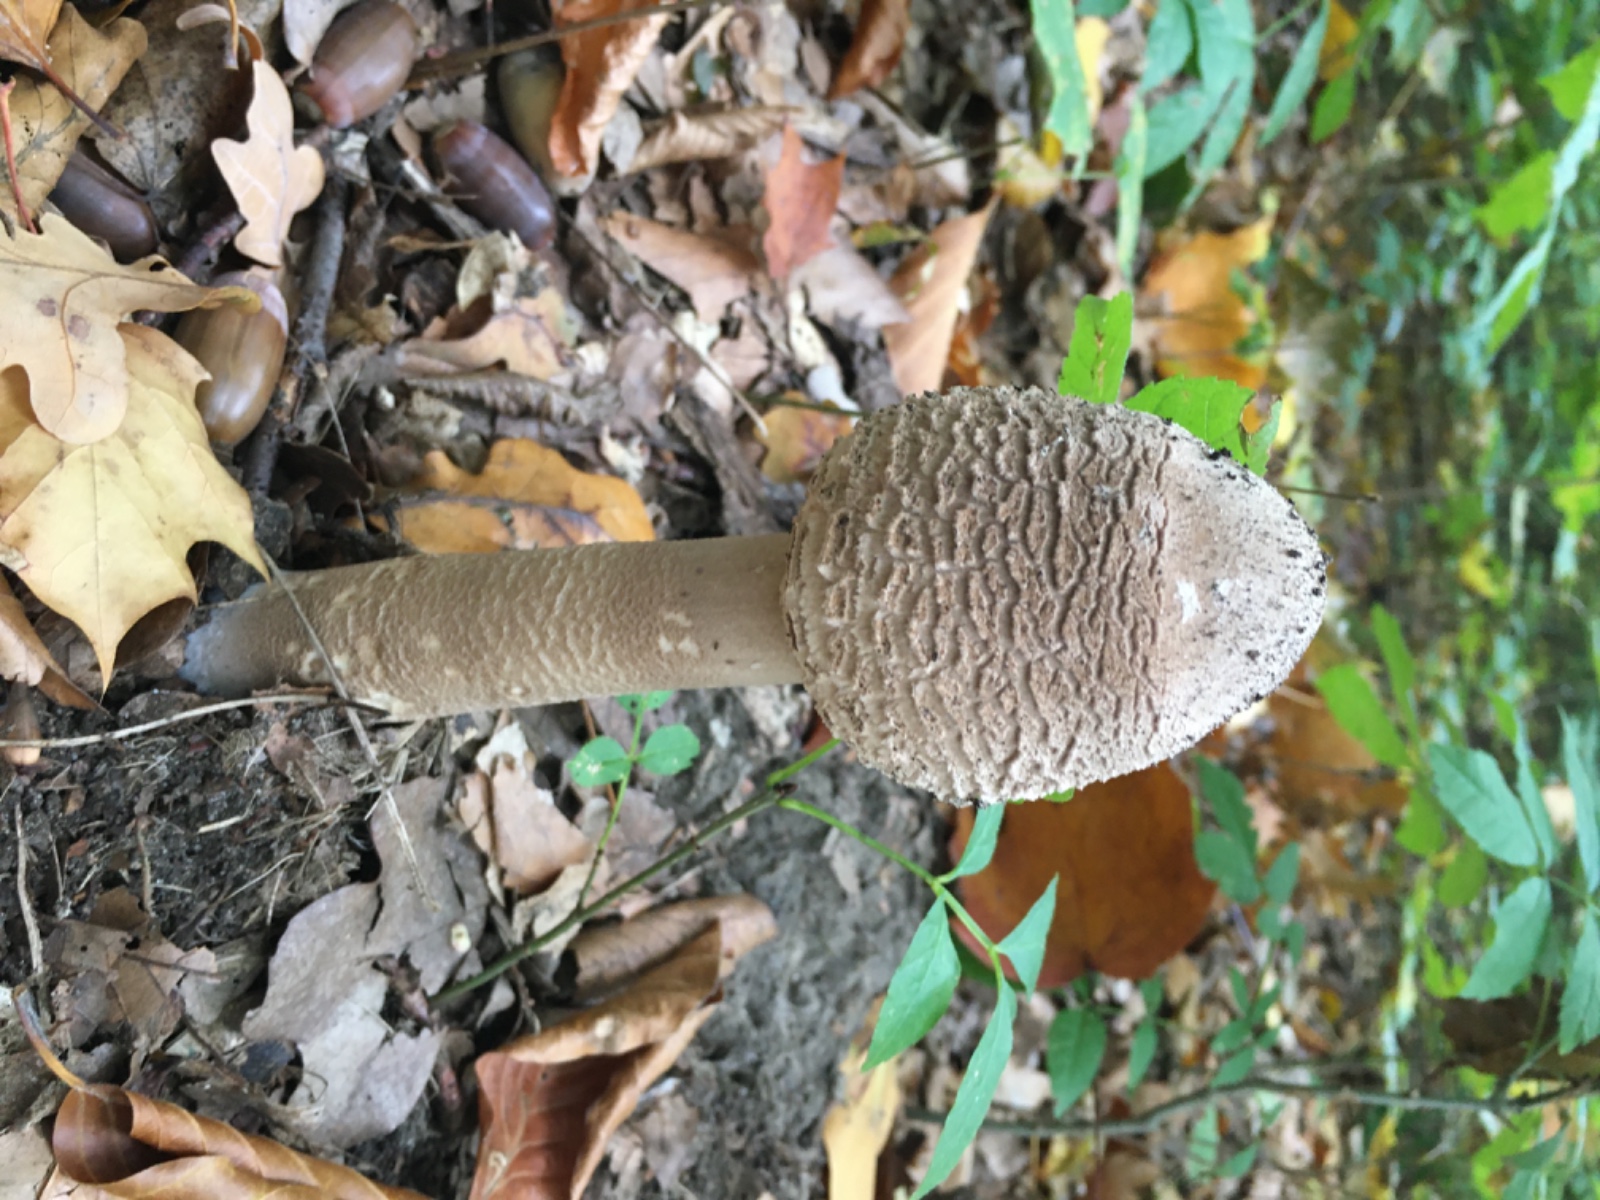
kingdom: Fungi
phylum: Basidiomycota
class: Agaricomycetes
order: Agaricales
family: Agaricaceae
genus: Macrolepiota
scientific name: Macrolepiota
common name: kæmpeparasolhat
